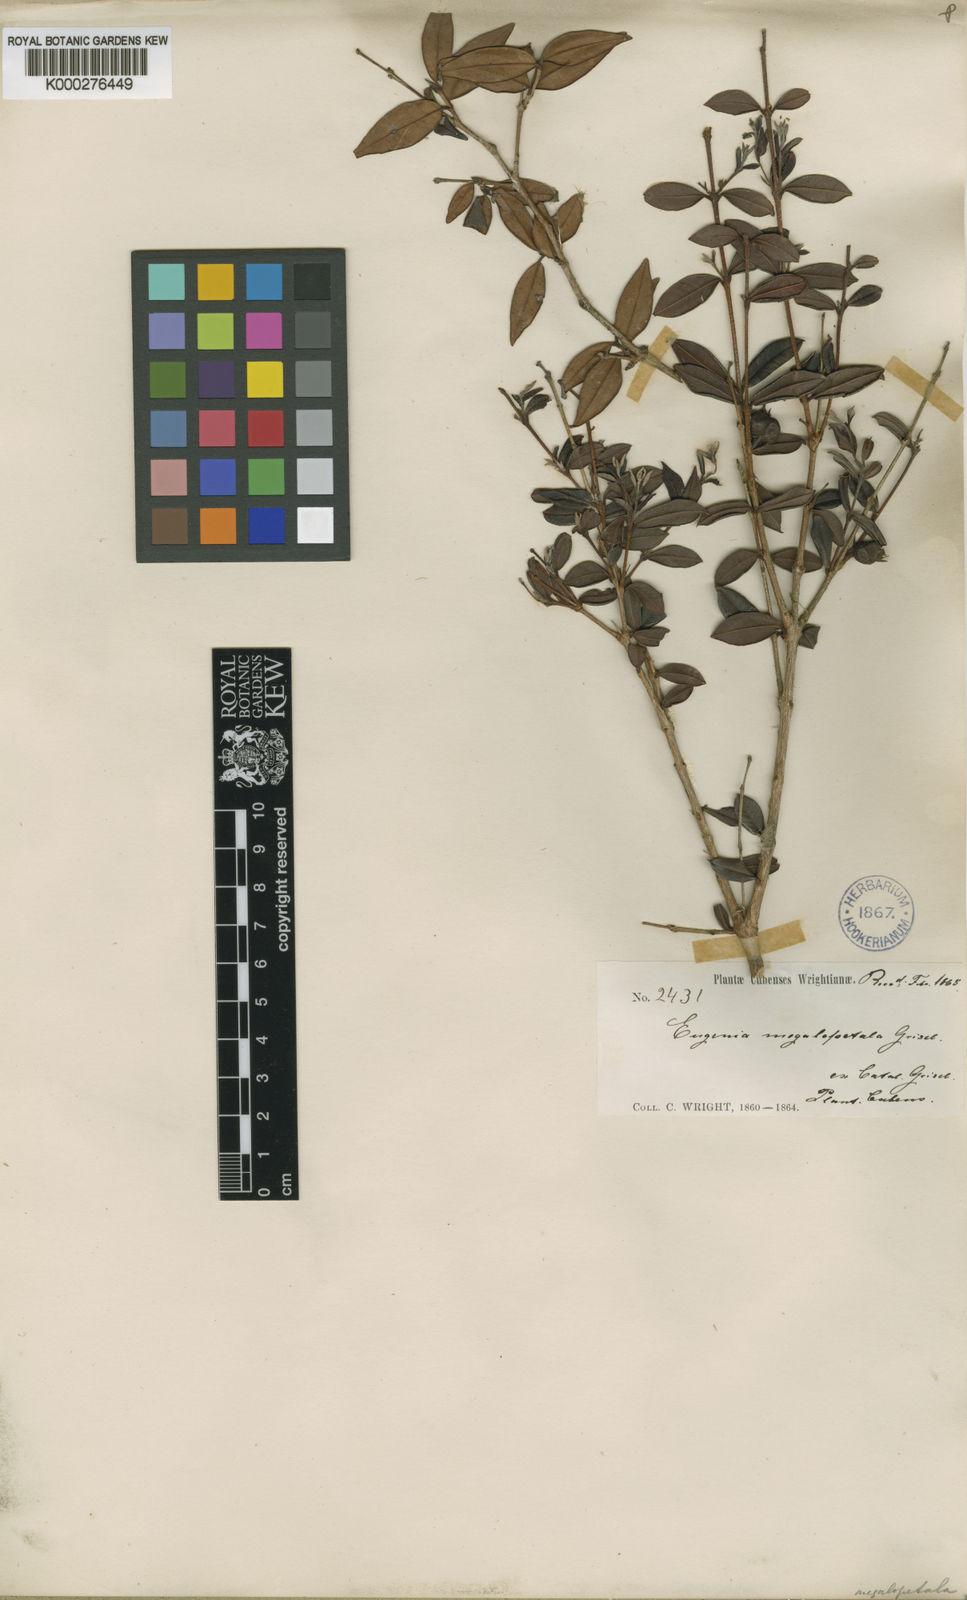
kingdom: Plantae
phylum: Tracheophyta
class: Magnoliopsida
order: Myrtales
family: Myrtaceae
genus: Eugenia
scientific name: Eugenia megalopetala
